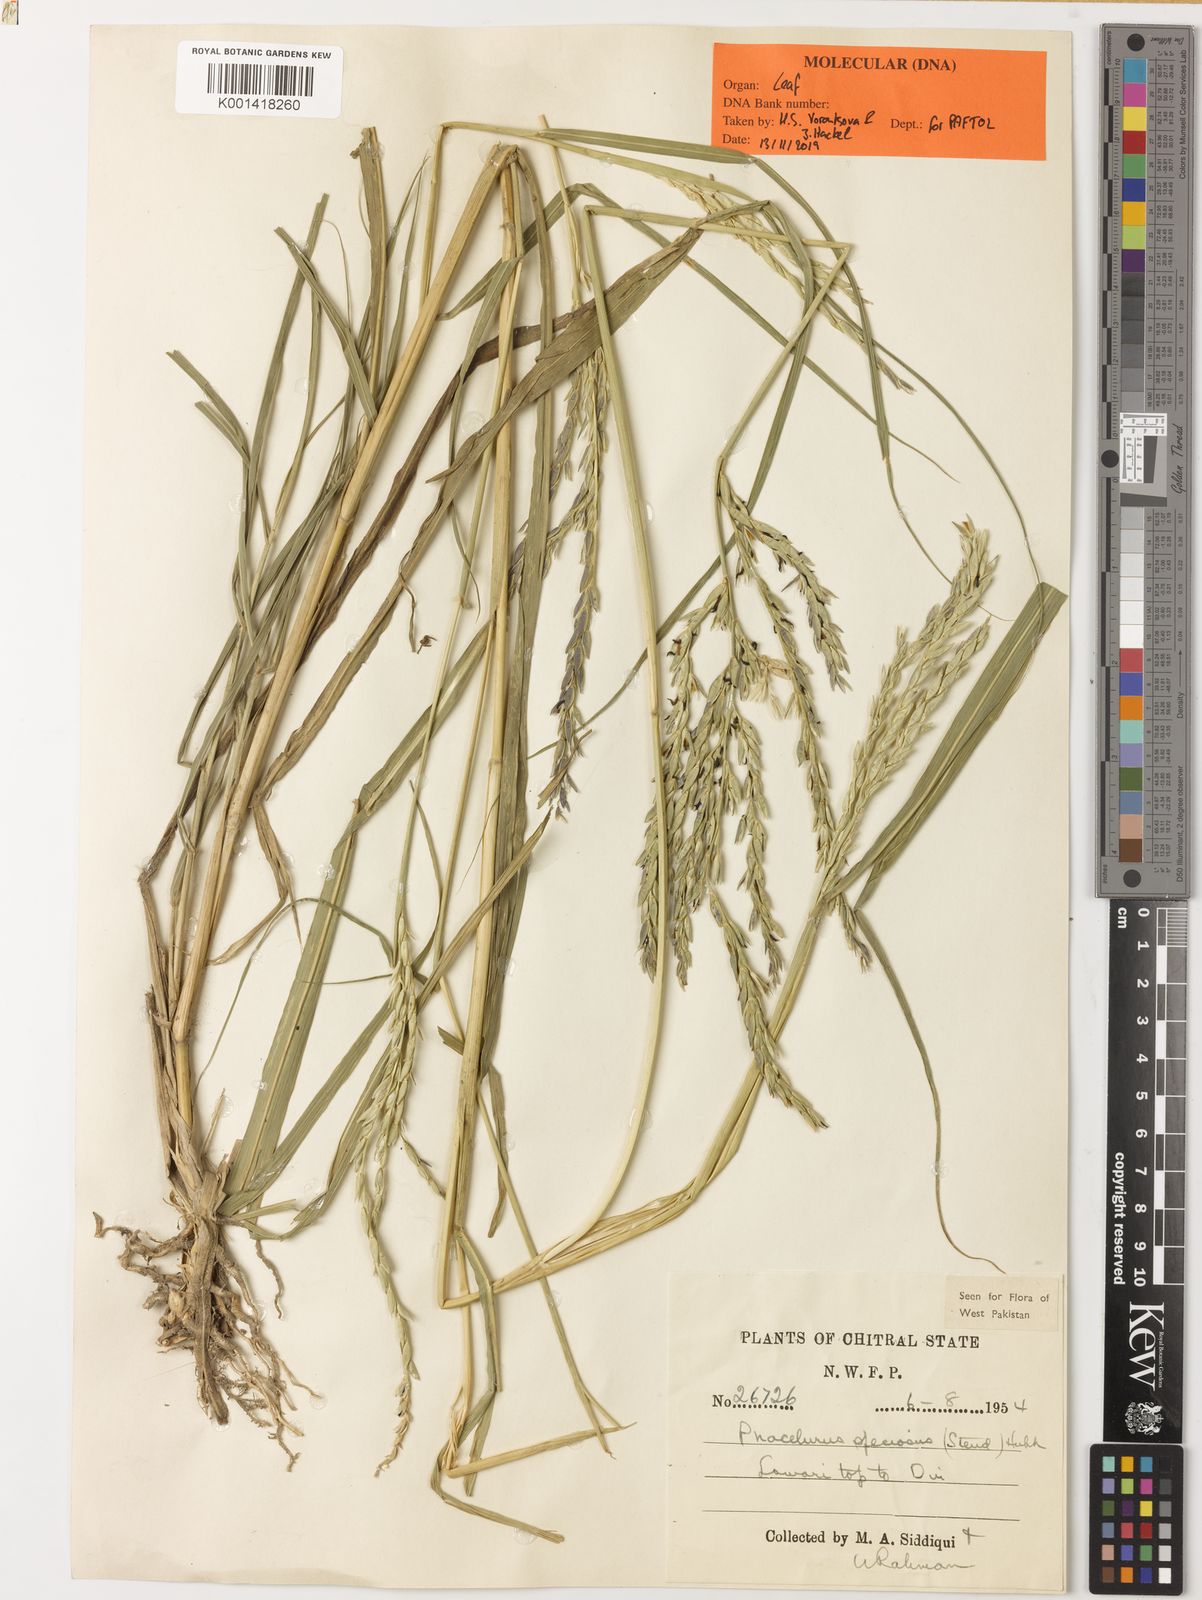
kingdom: Plantae
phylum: Tracheophyta
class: Liliopsida
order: Poales
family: Poaceae
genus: Phacelurus
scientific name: Phacelurus speciosus
